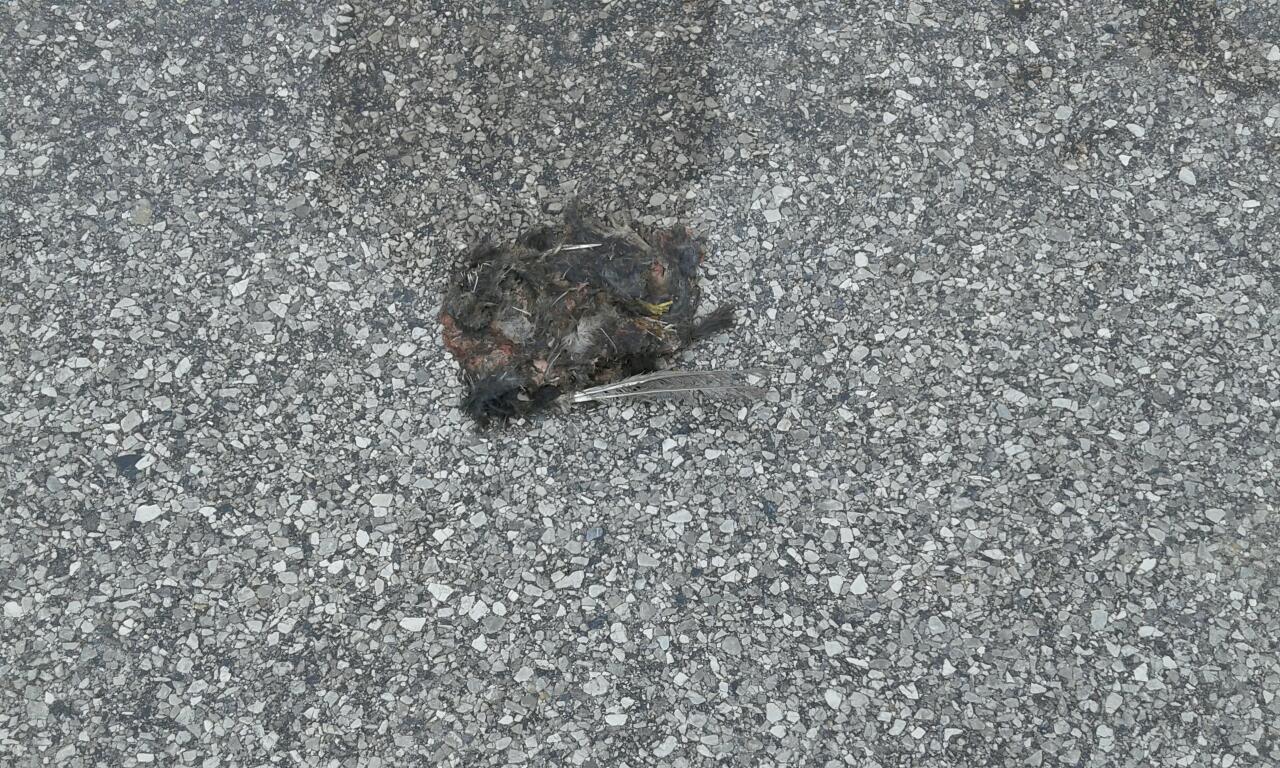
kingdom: Animalia
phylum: Chordata
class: Aves
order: Passeriformes
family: Passeridae
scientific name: Passeridae
